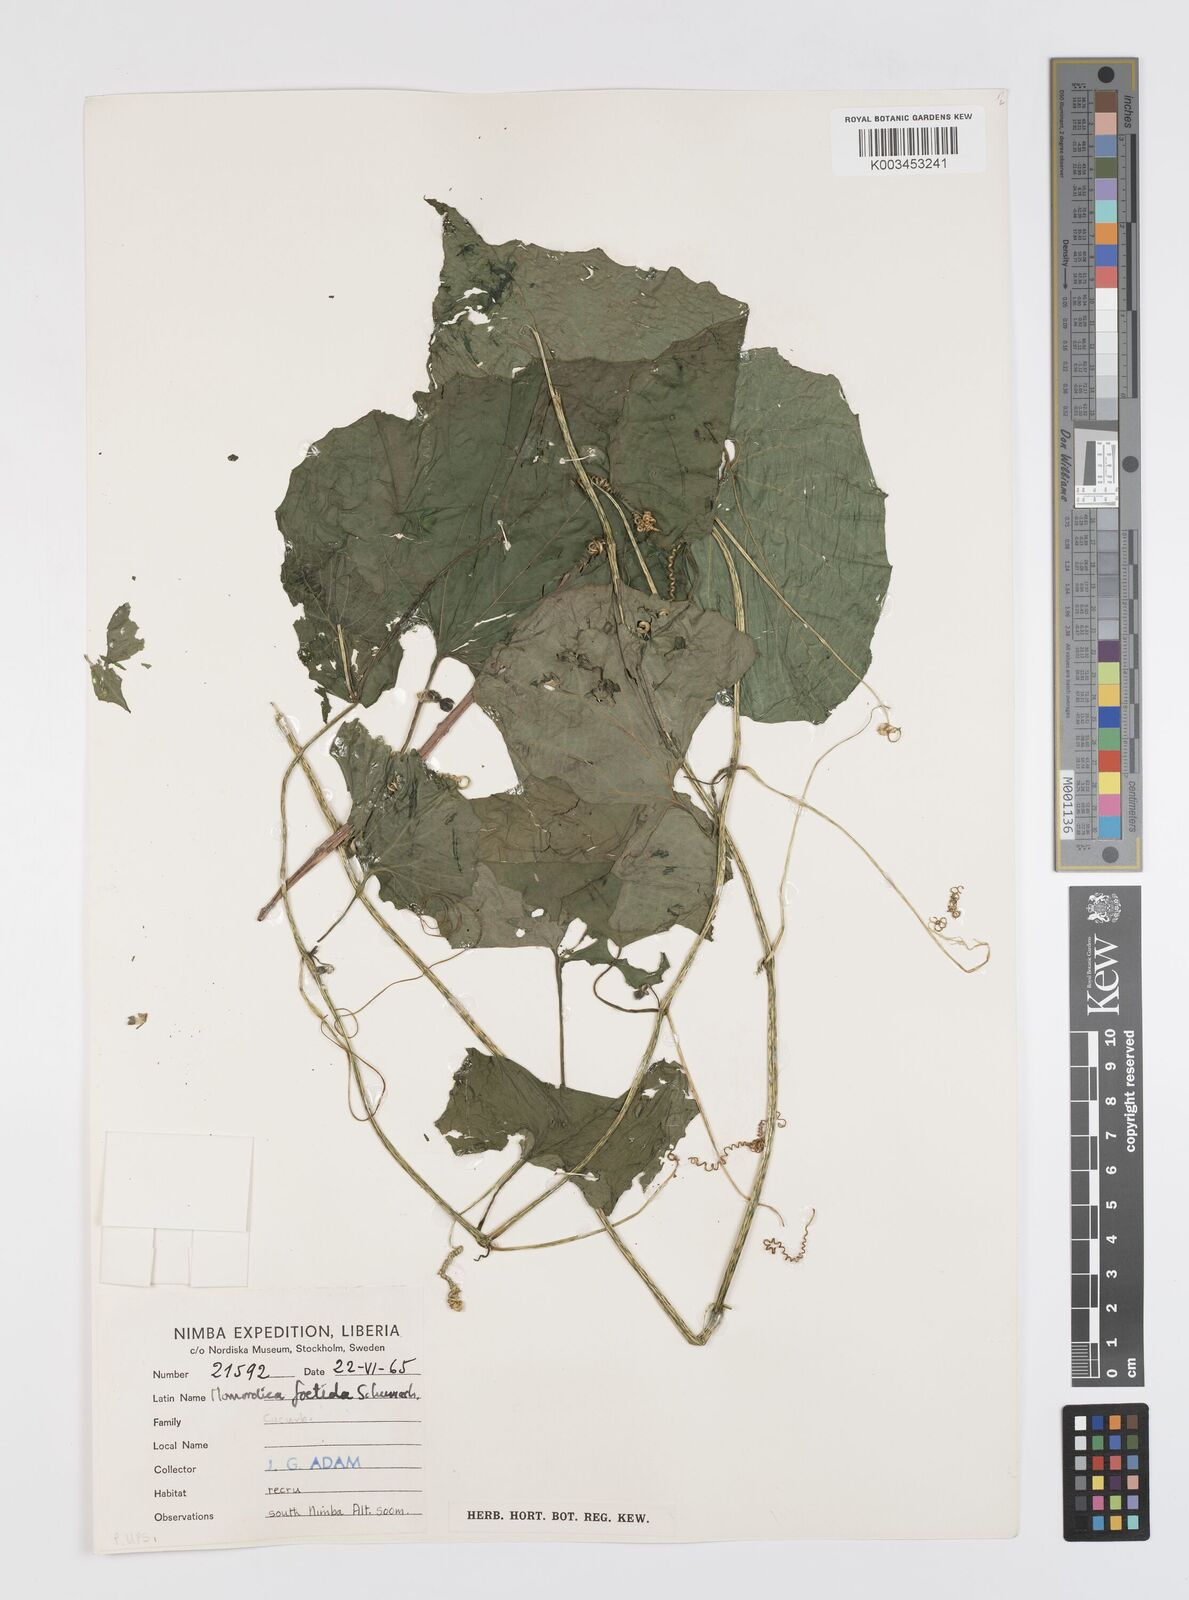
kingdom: Plantae
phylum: Tracheophyta
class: Magnoliopsida
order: Cucurbitales
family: Cucurbitaceae
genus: Momordica
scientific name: Momordica foetida
